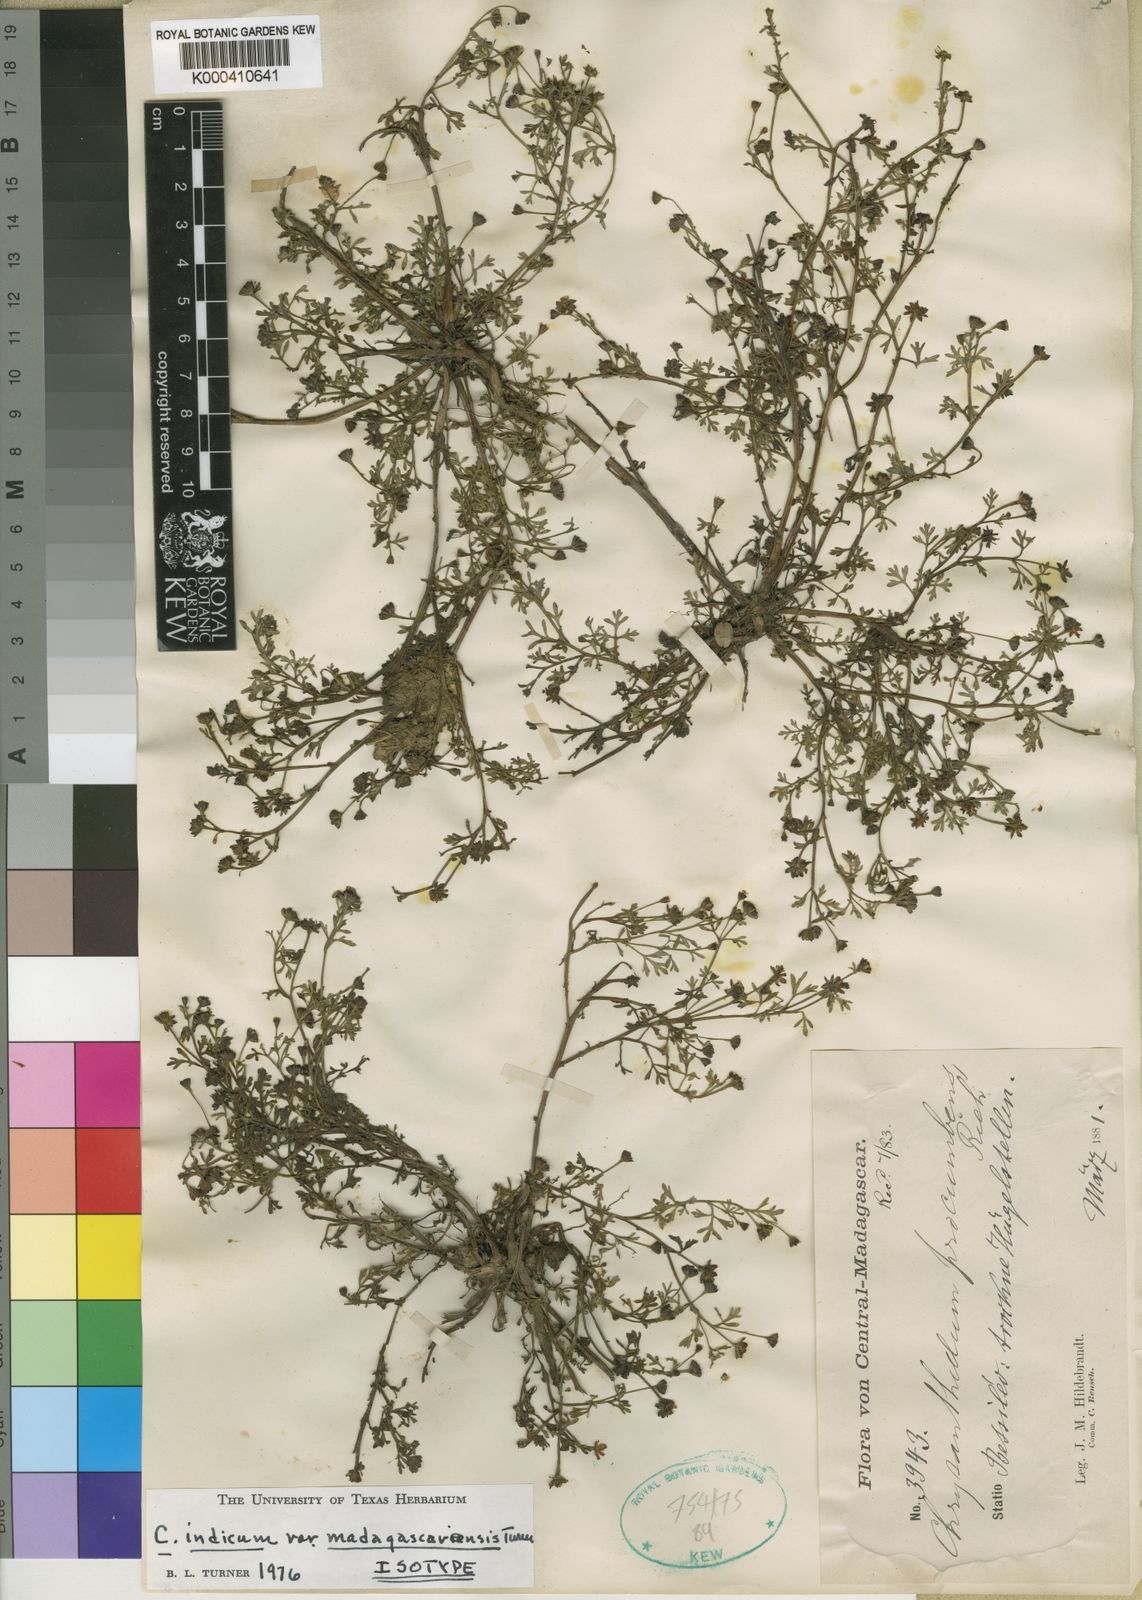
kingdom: Plantae
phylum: Tracheophyta
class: Magnoliopsida
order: Asterales
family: Asteraceae
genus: Chrysanthellum
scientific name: Chrysanthellum indicum
